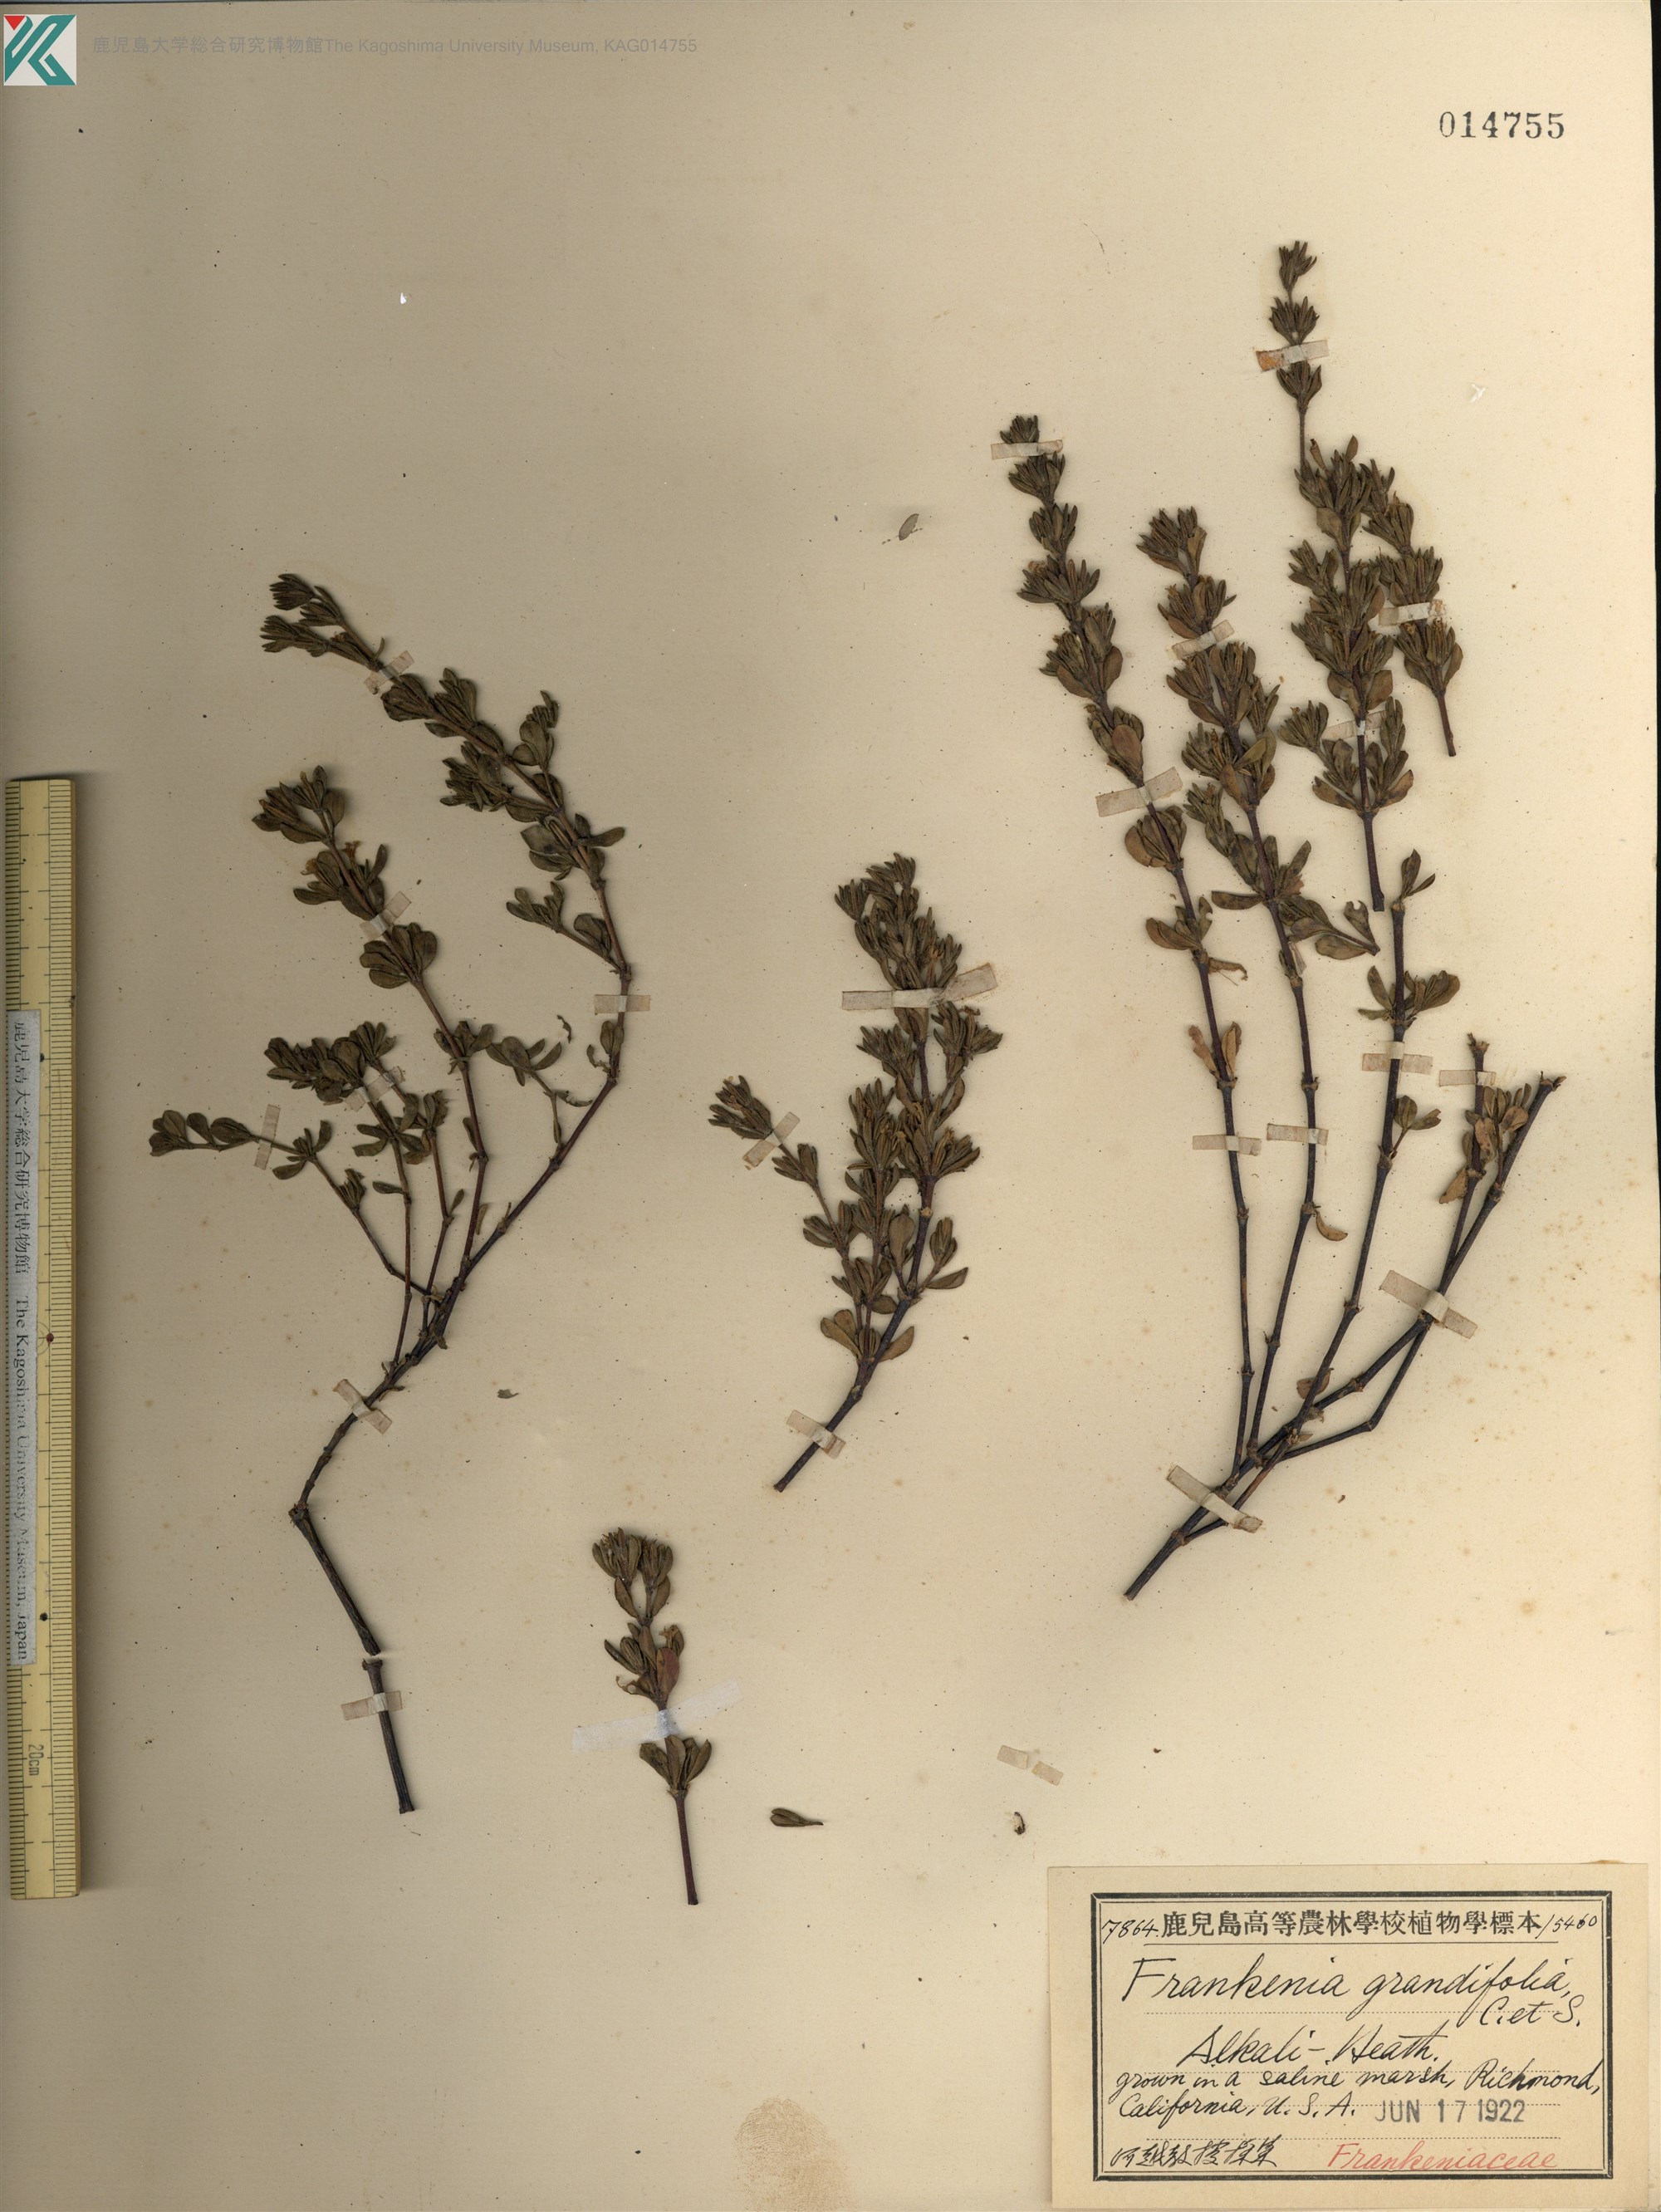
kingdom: Plantae
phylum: Tracheophyta
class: Magnoliopsida
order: Caryophyllales
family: Frankeniaceae
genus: Frankenia
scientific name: Frankenia salina
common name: Alkali seaheath
